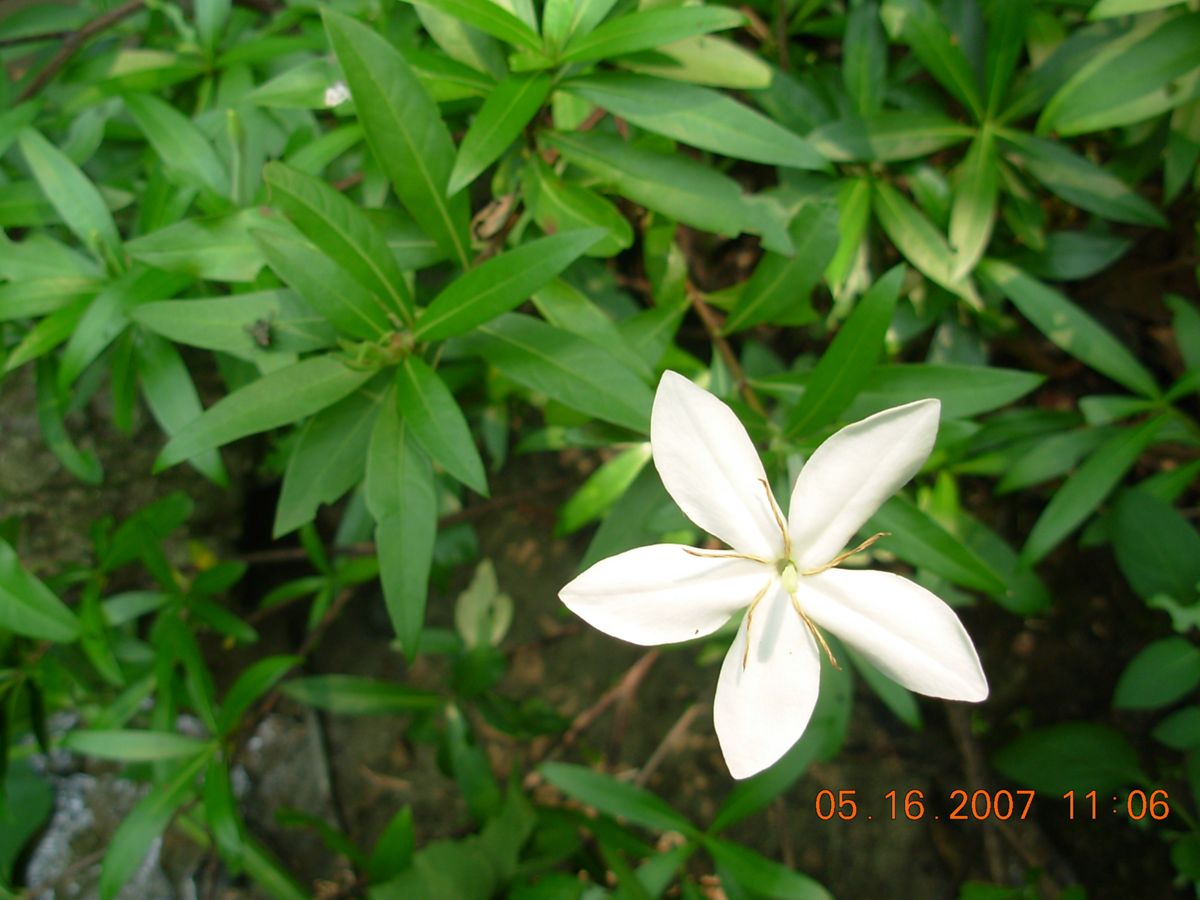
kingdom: Plantae
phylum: Tracheophyta
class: Magnoliopsida
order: Gentianales
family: Rubiaceae
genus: Augusta
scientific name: Augusta rivalis
